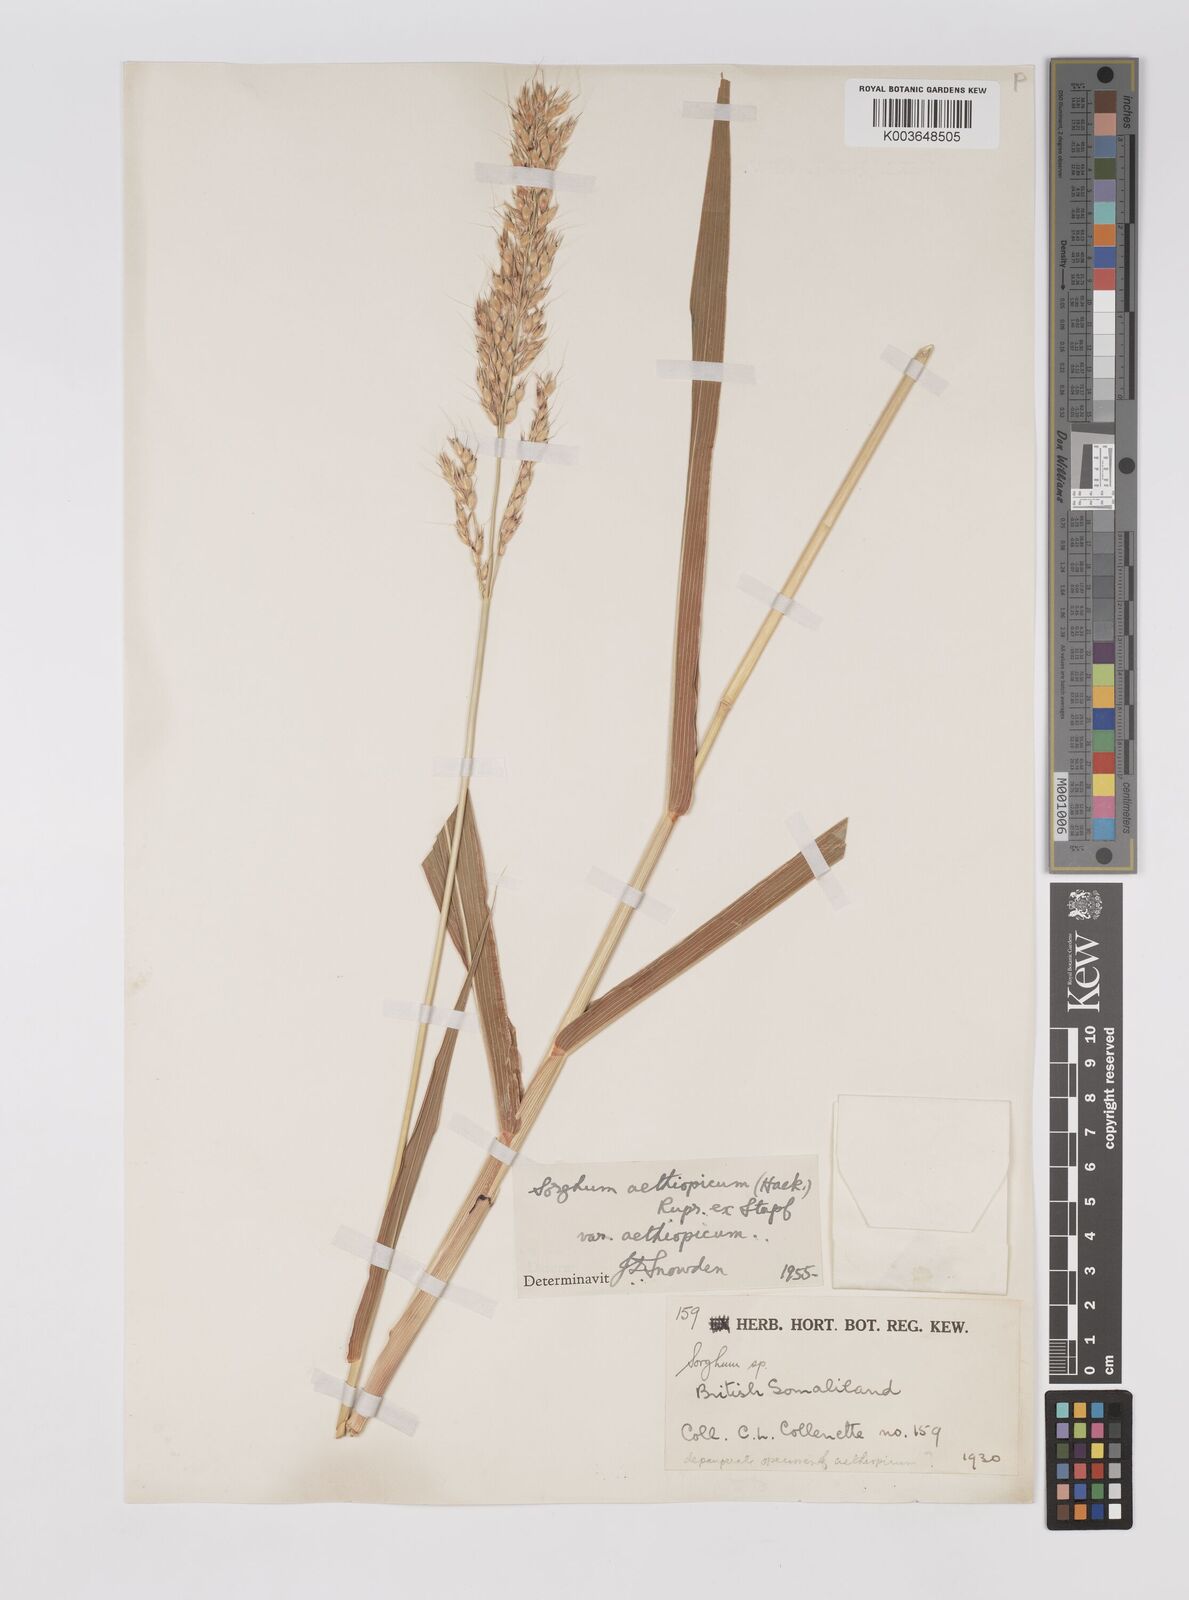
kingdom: Plantae
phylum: Tracheophyta
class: Liliopsida
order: Poales
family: Poaceae
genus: Sorghum
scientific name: Sorghum arundinaceum
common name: Sorghum
